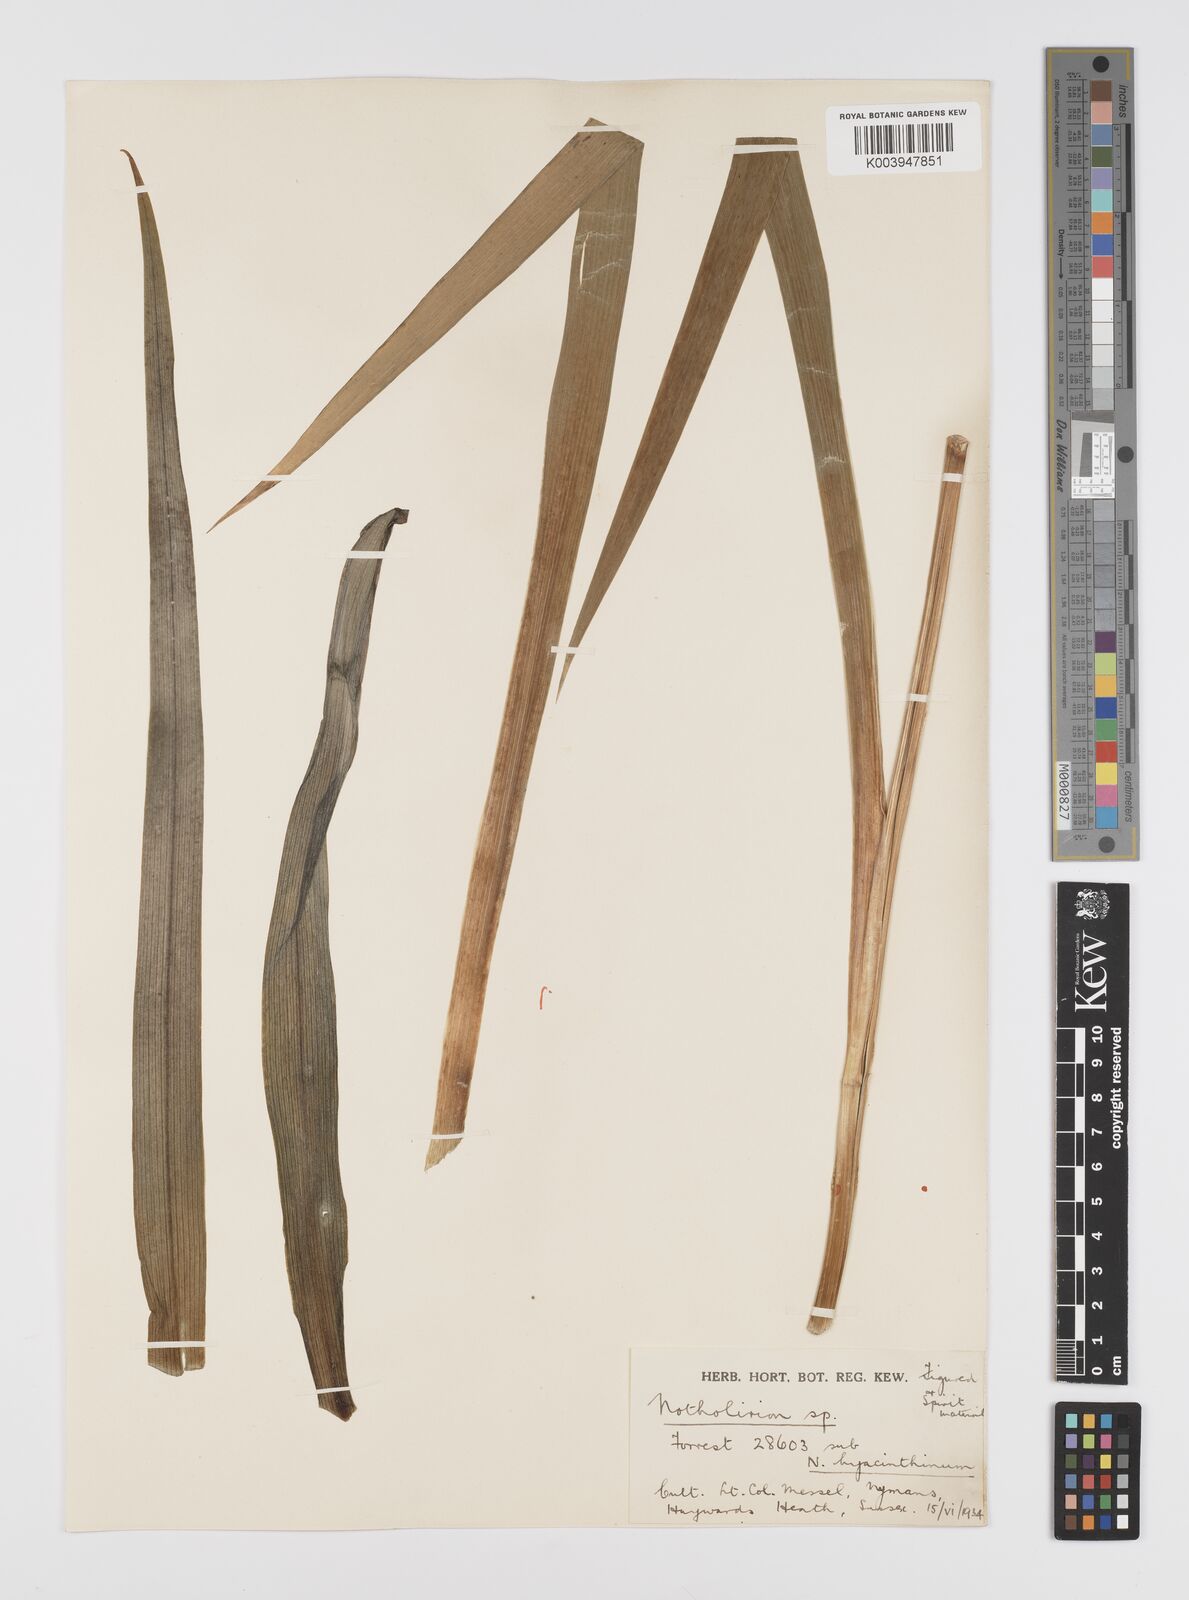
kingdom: Plantae
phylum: Tracheophyta
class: Liliopsida
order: Liliales
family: Liliaceae
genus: Notholirion
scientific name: Notholirion bulbuliferum
